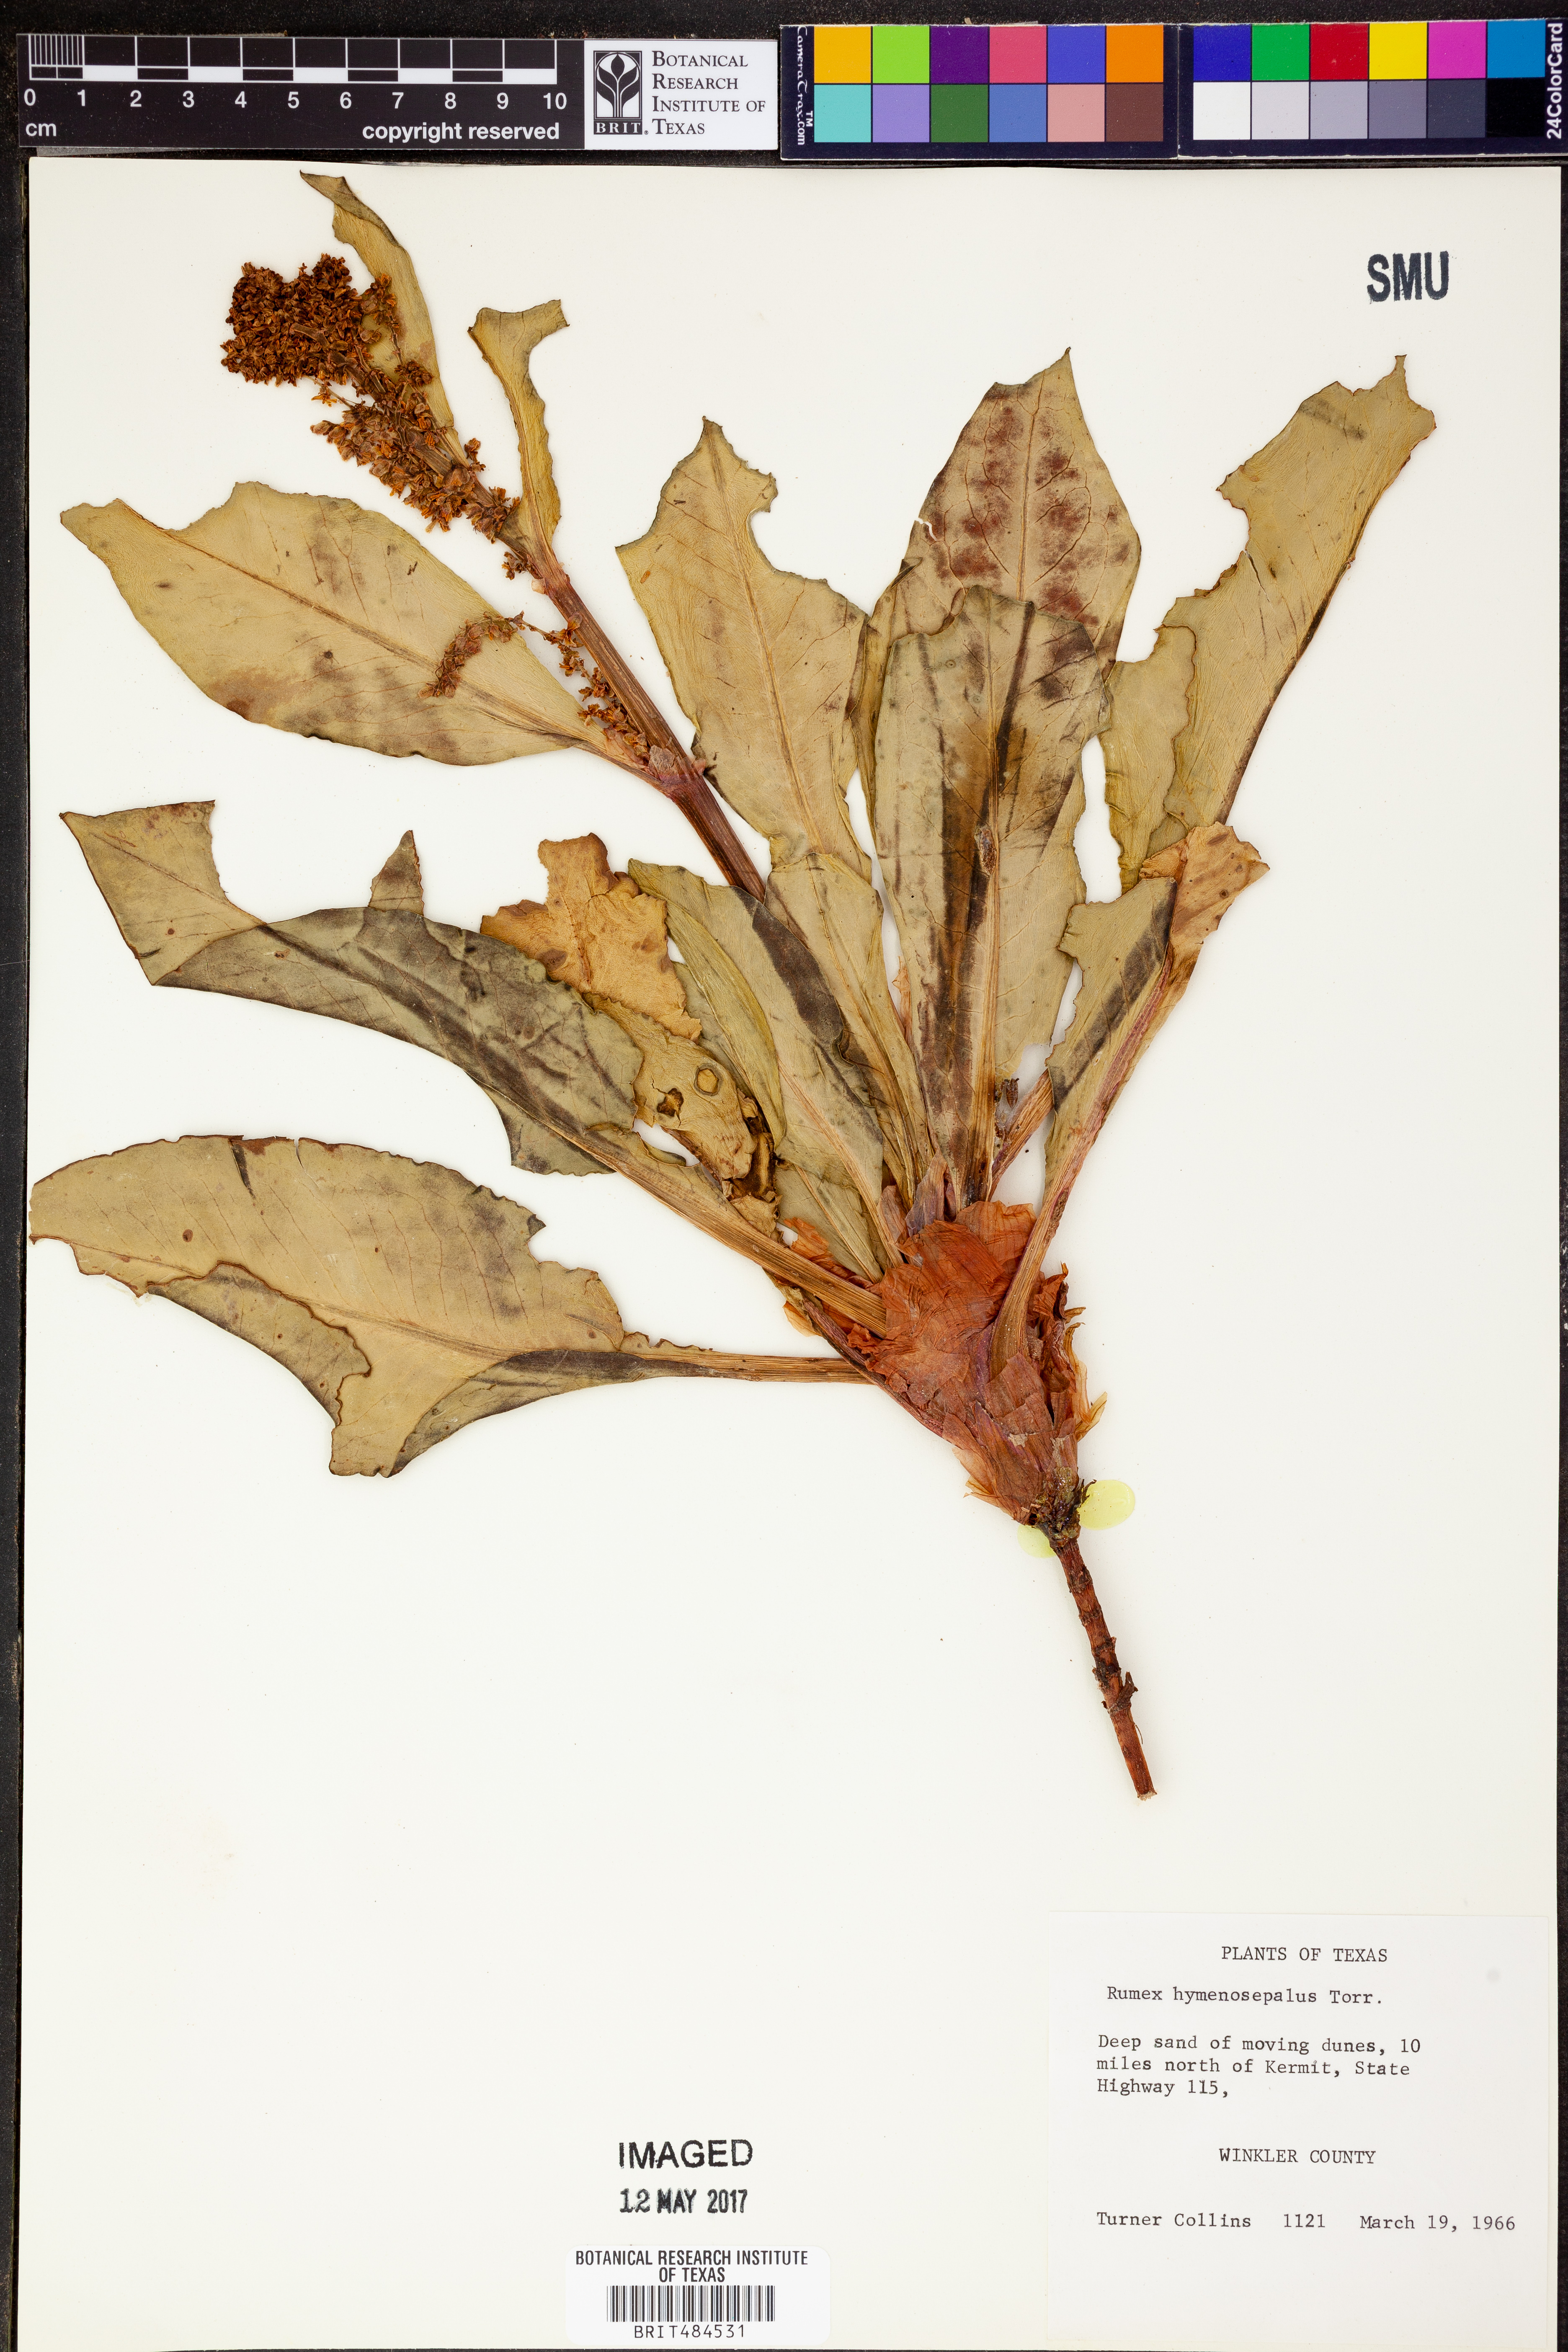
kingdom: Plantae
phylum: Tracheophyta
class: Magnoliopsida
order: Caryophyllales
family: Polygonaceae
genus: Rumex
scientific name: Rumex hymenosepalus
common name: Ganagra
